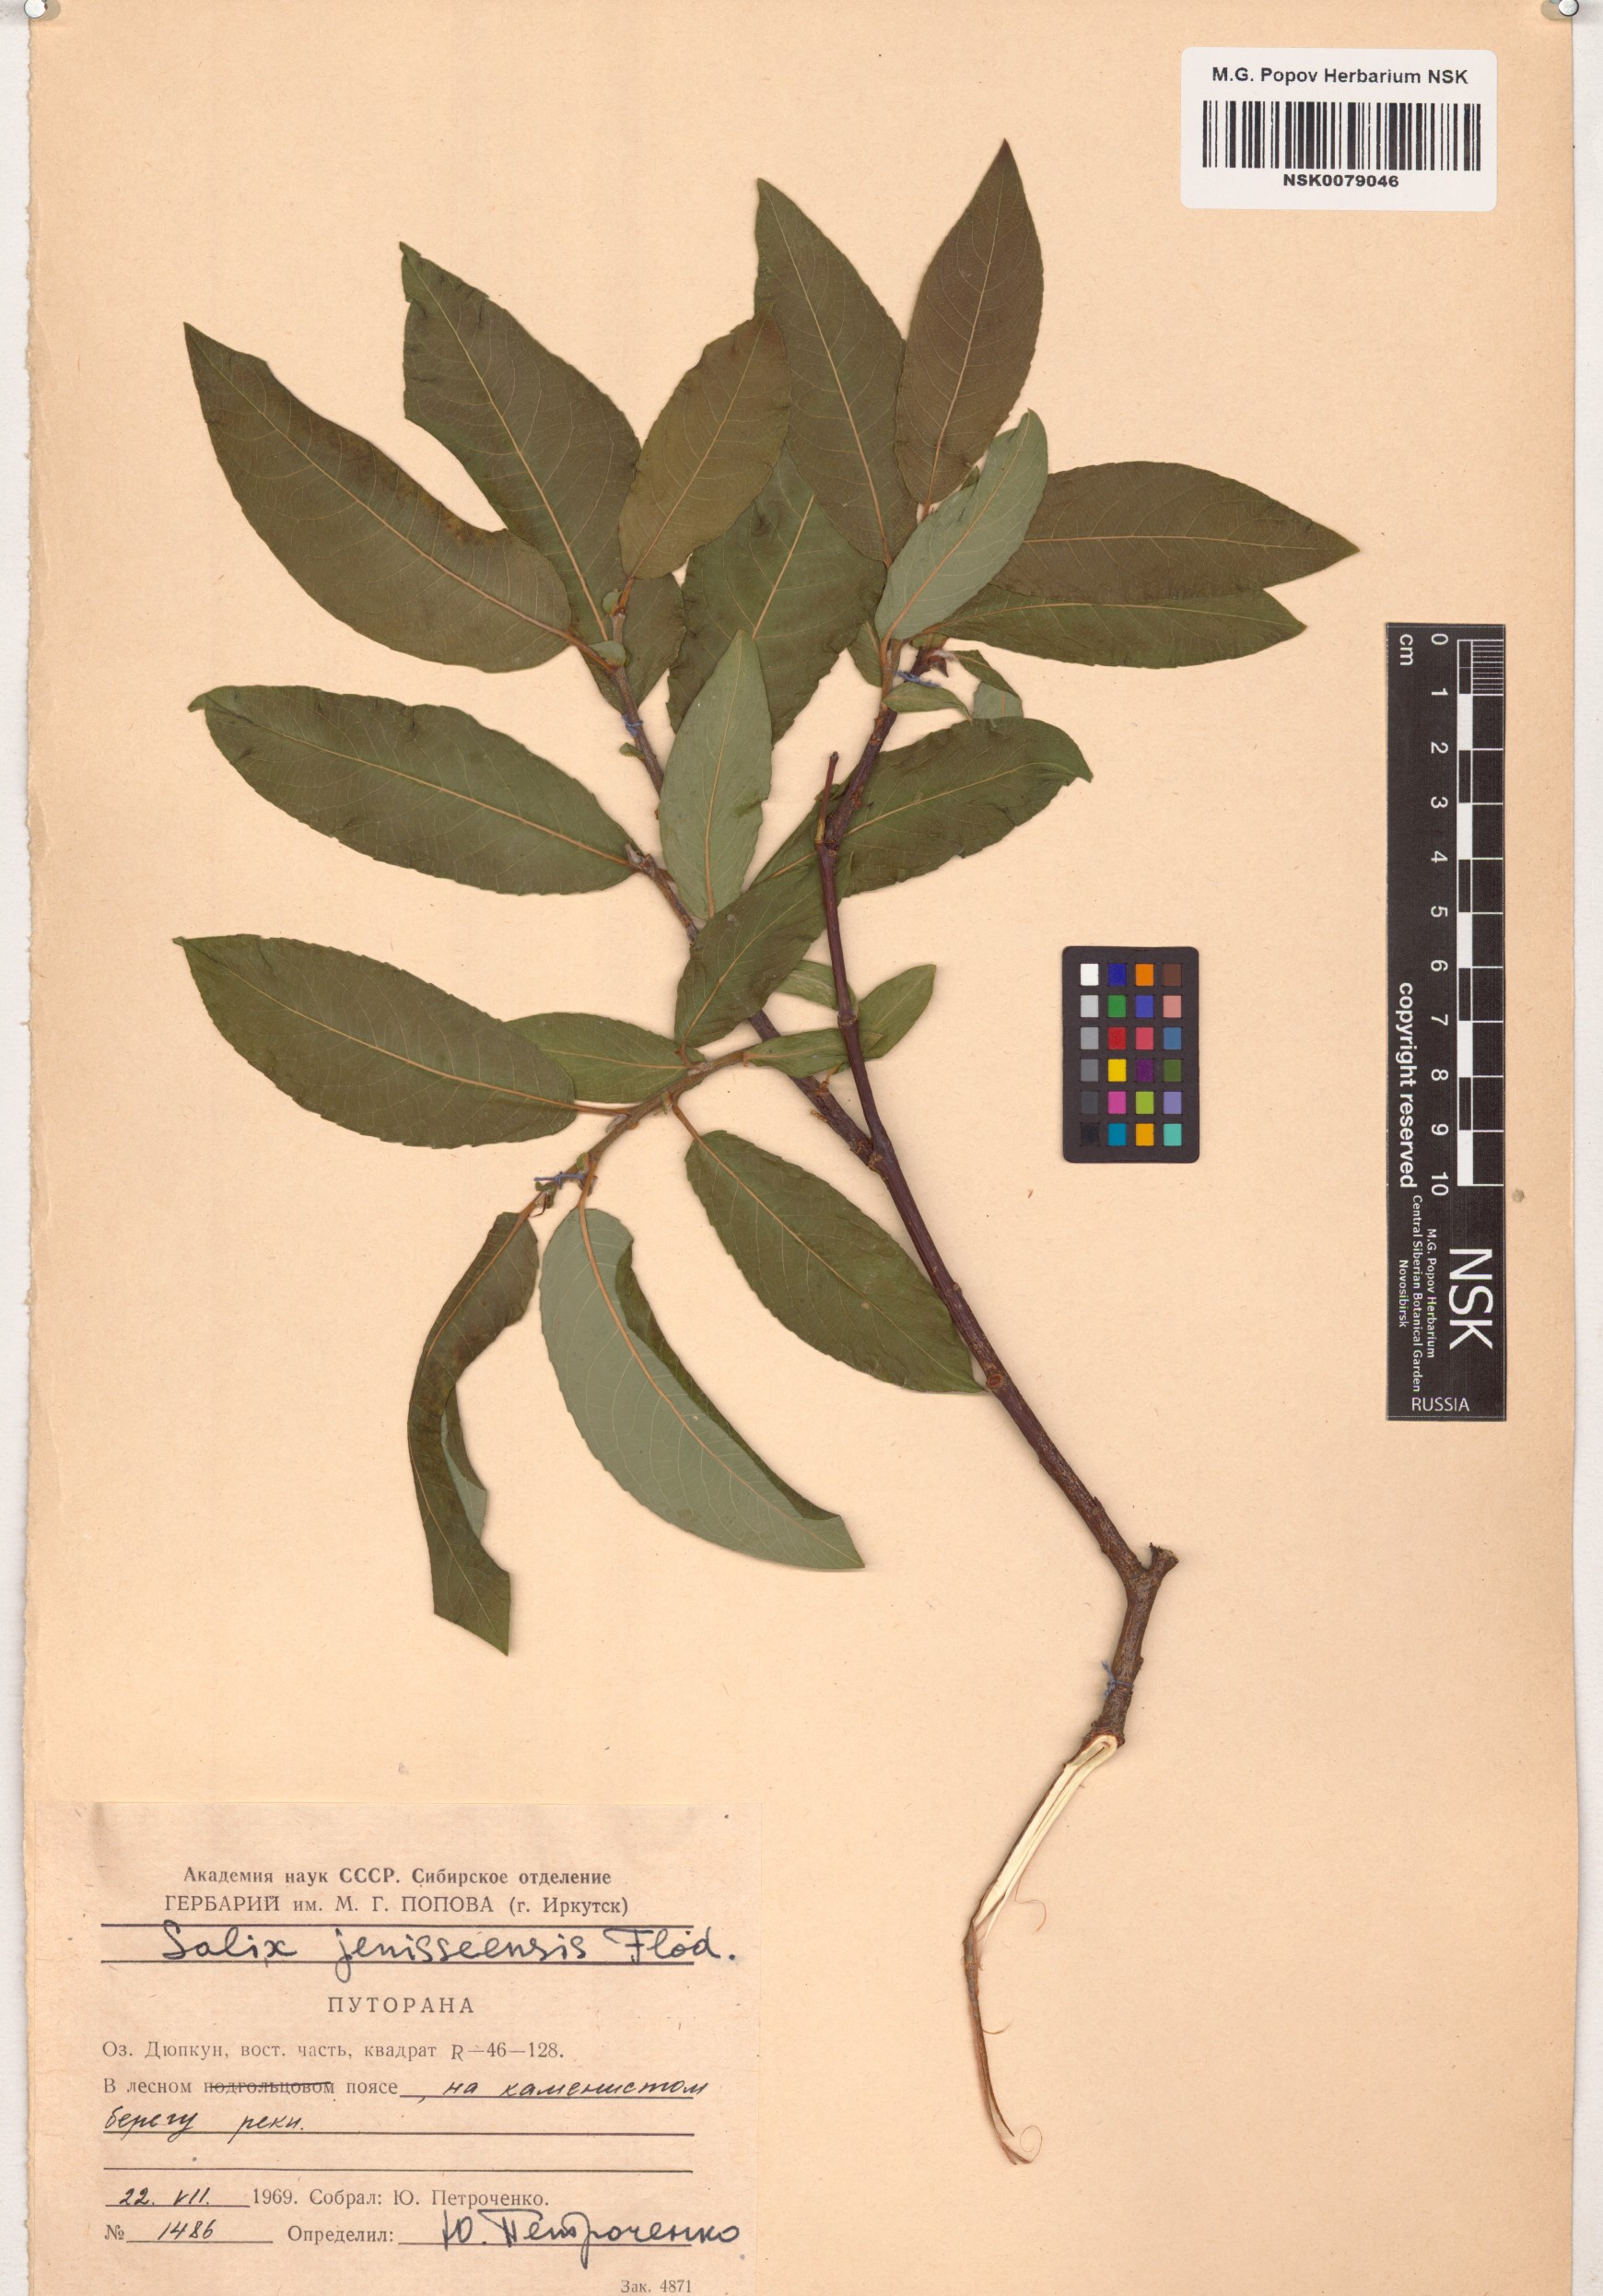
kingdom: Plantae
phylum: Tracheophyta
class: Magnoliopsida
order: Malpighiales
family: Salicaceae
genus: Salix
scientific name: Salix jenisseensis
